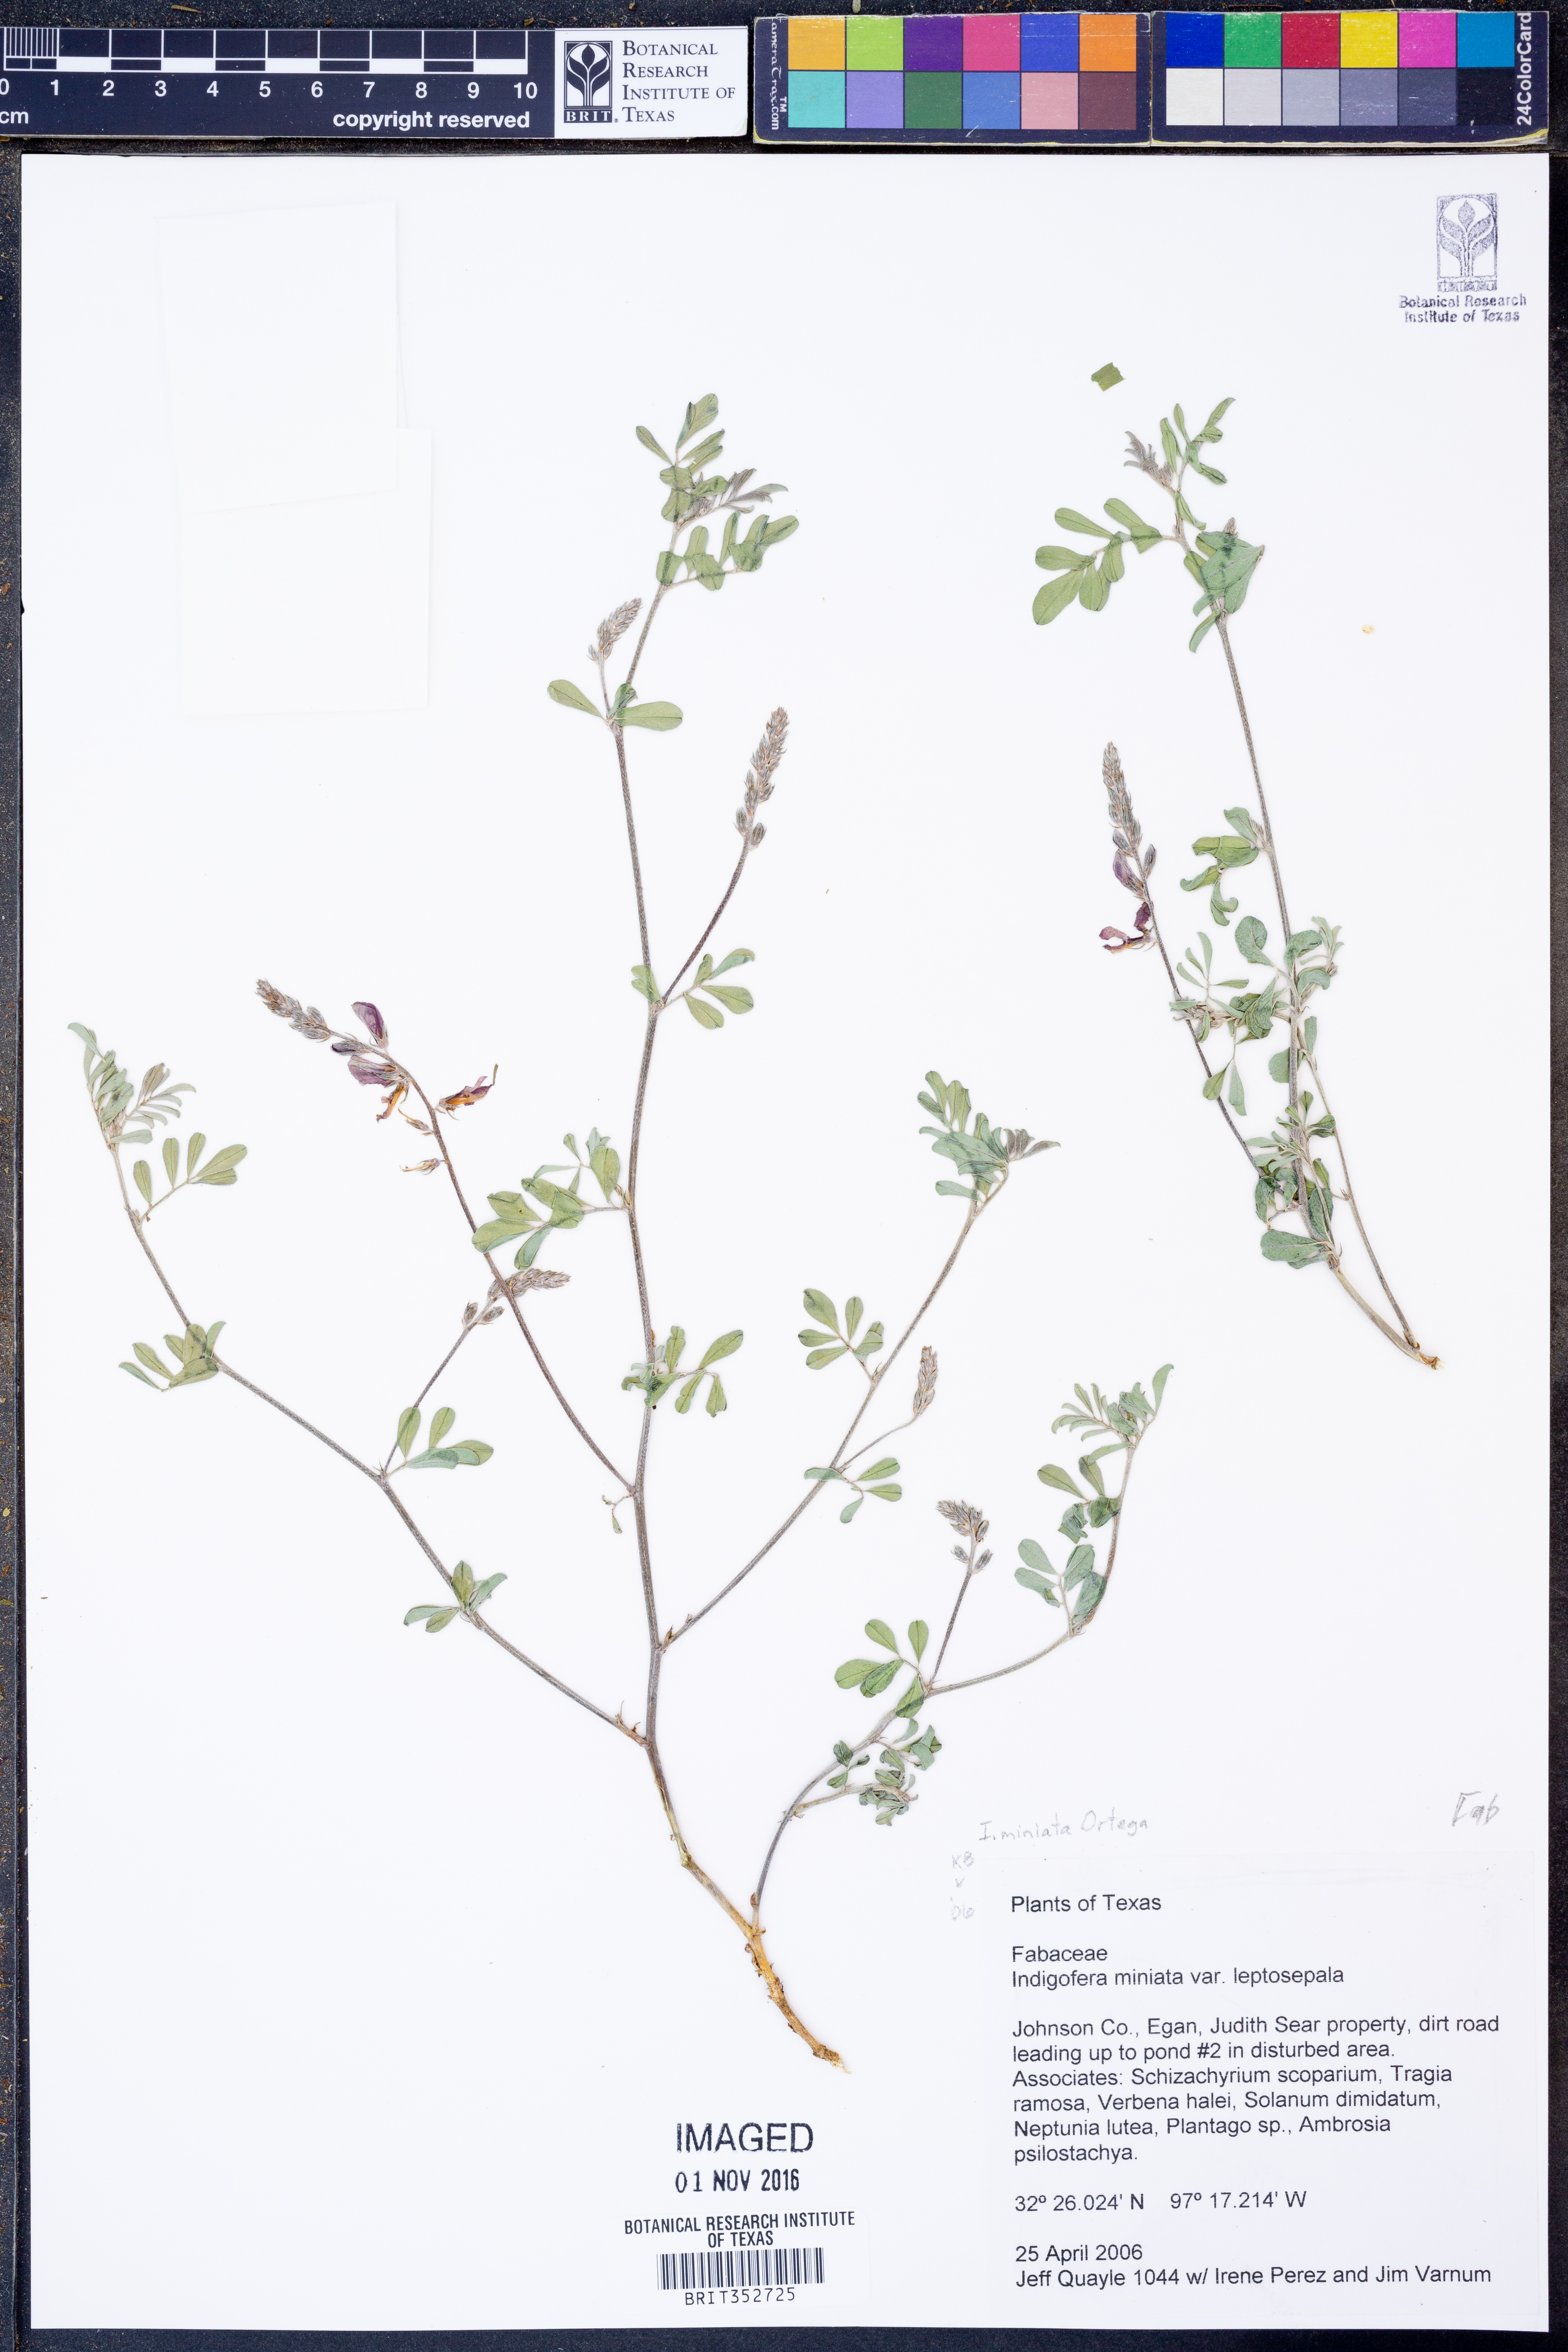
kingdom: Plantae
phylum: Tracheophyta
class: Magnoliopsida
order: Fabales
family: Fabaceae
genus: Indigofera
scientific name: Indigofera miniata
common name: Coast indigo
